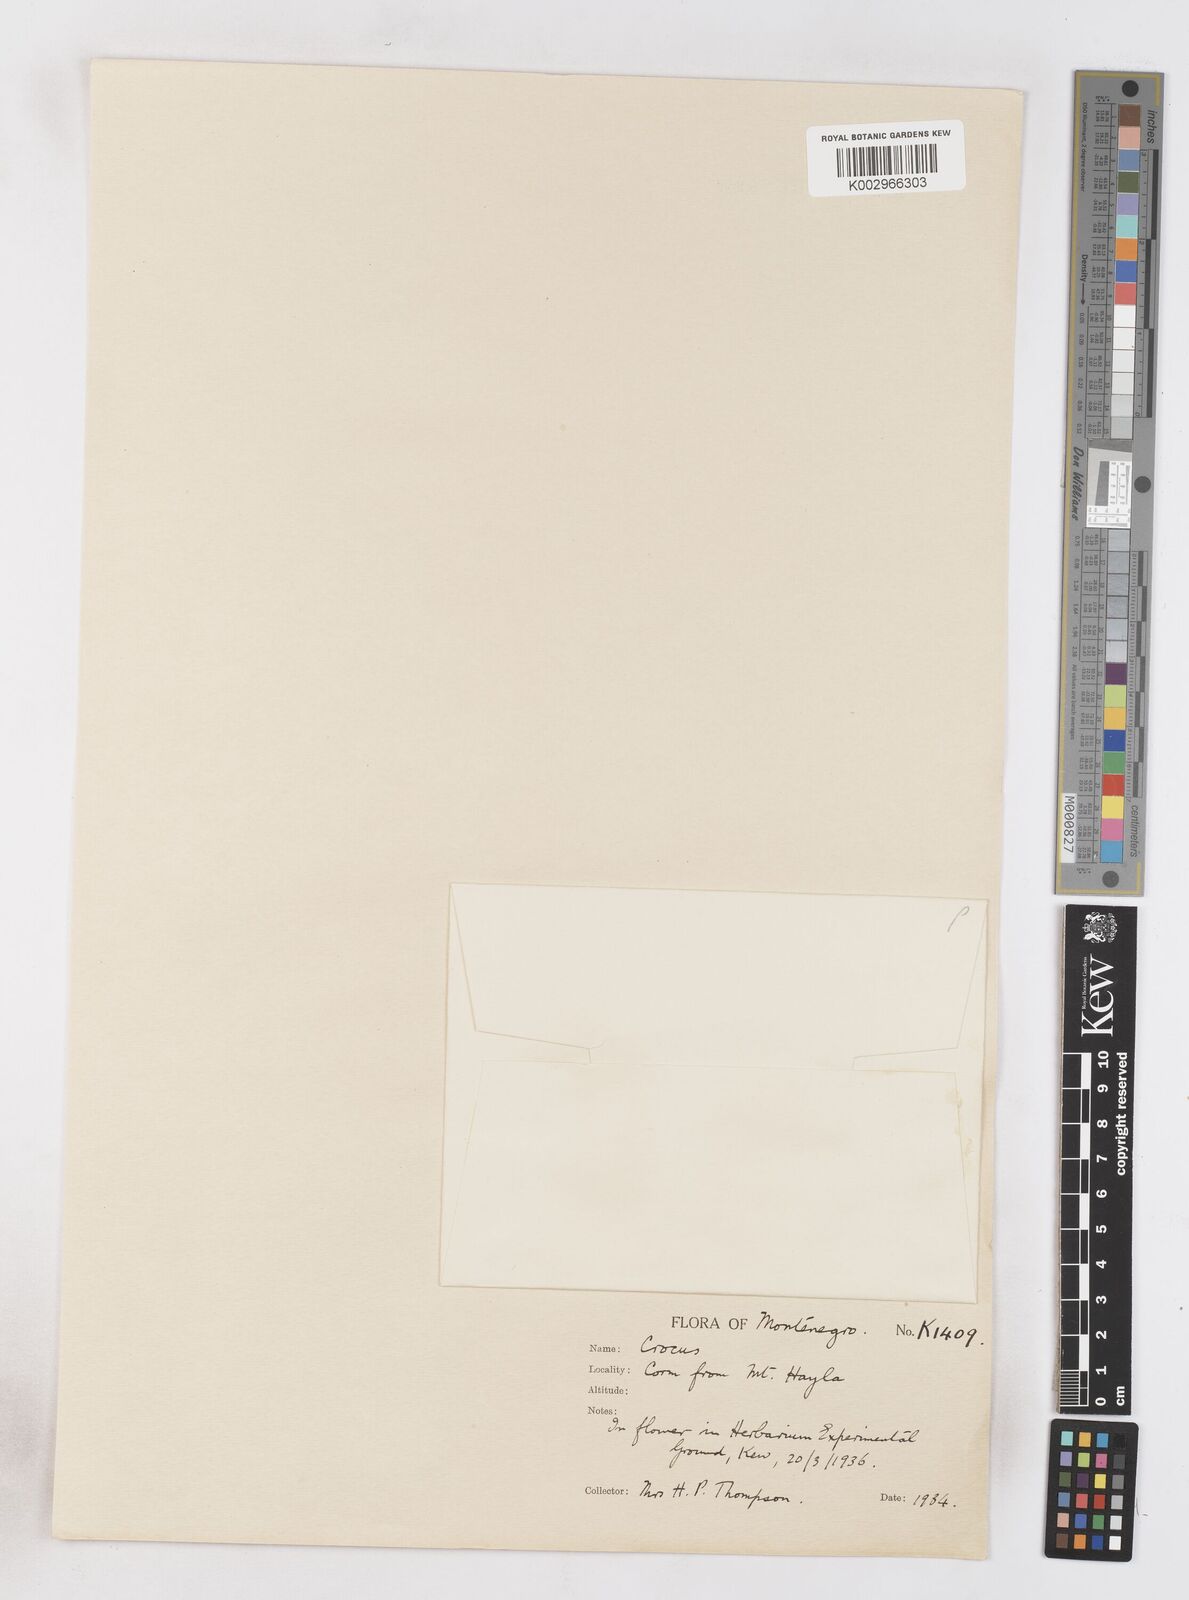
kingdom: Plantae
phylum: Tracheophyta
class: Liliopsida
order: Asparagales
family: Iridaceae
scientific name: Iridaceae
